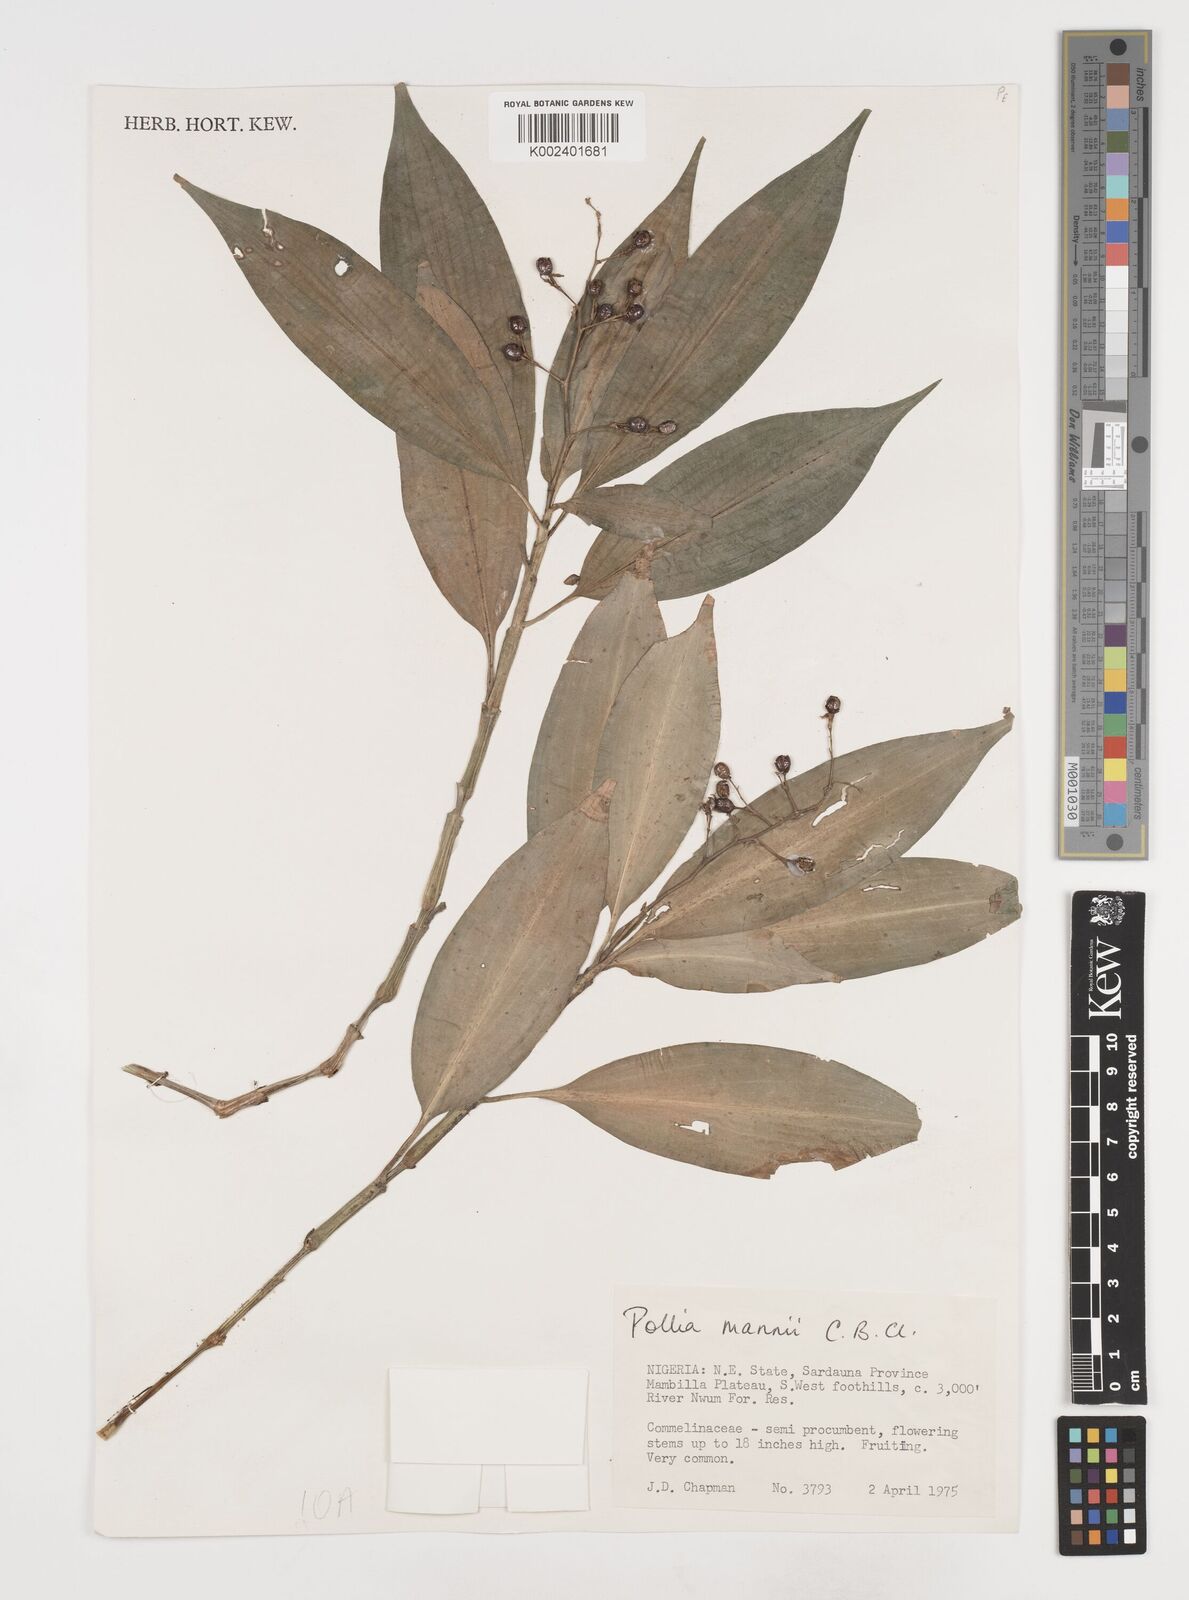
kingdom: Plantae
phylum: Tracheophyta
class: Liliopsida
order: Commelinales
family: Commelinaceae
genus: Pollia
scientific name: Pollia mannii
